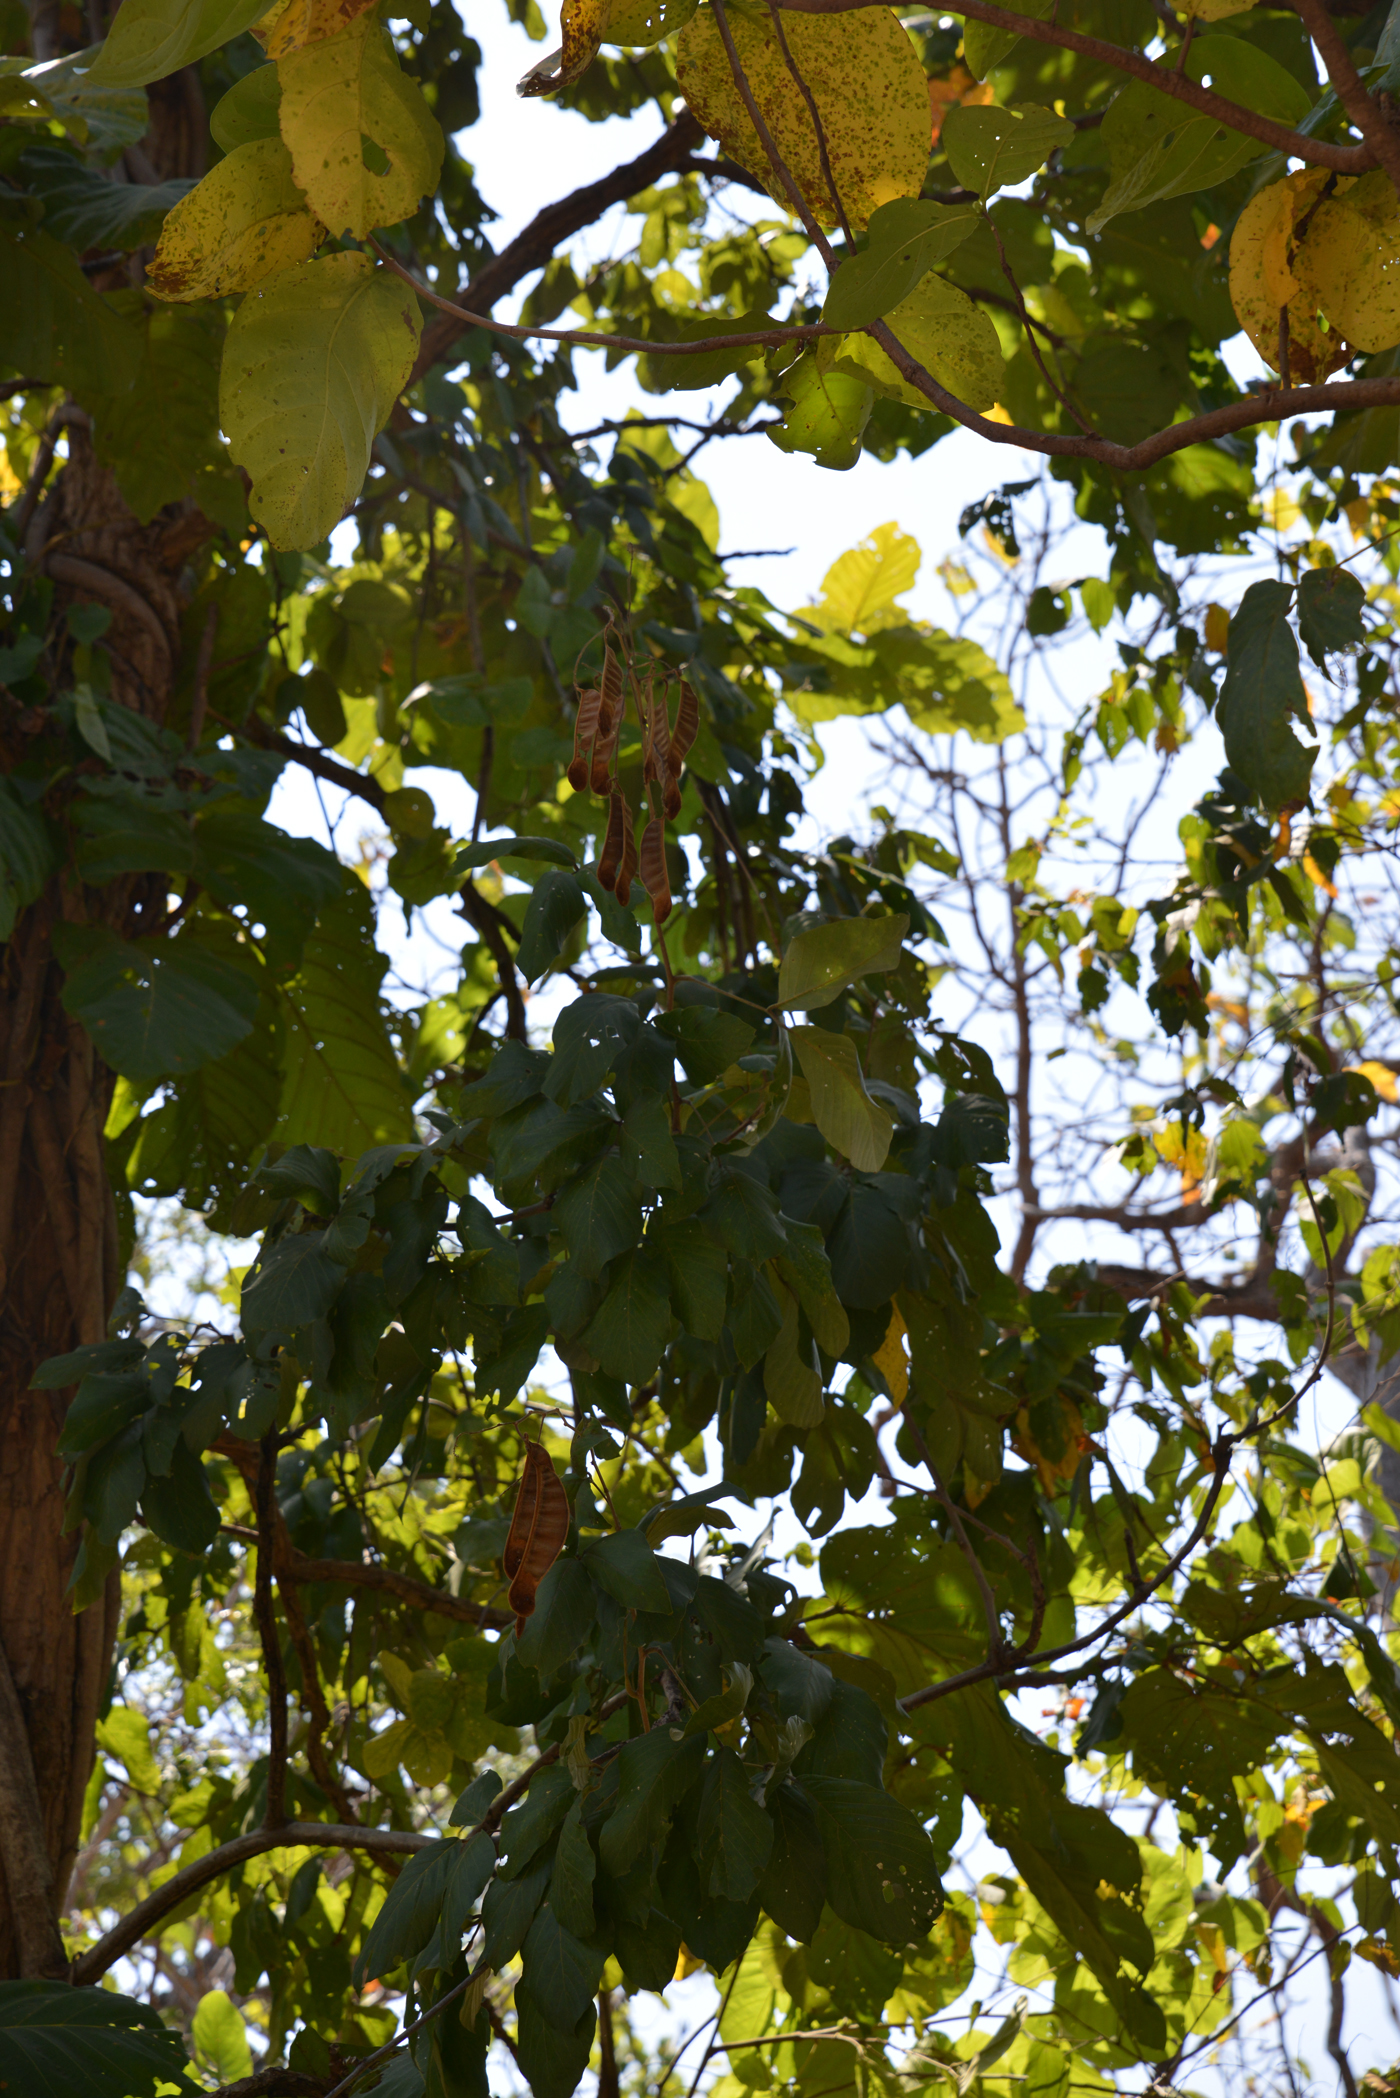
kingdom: Plantae
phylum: Tracheophyta
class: Magnoliopsida
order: Fabales
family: Fabaceae
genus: Spatholobus
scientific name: Spatholobus parviflorus
